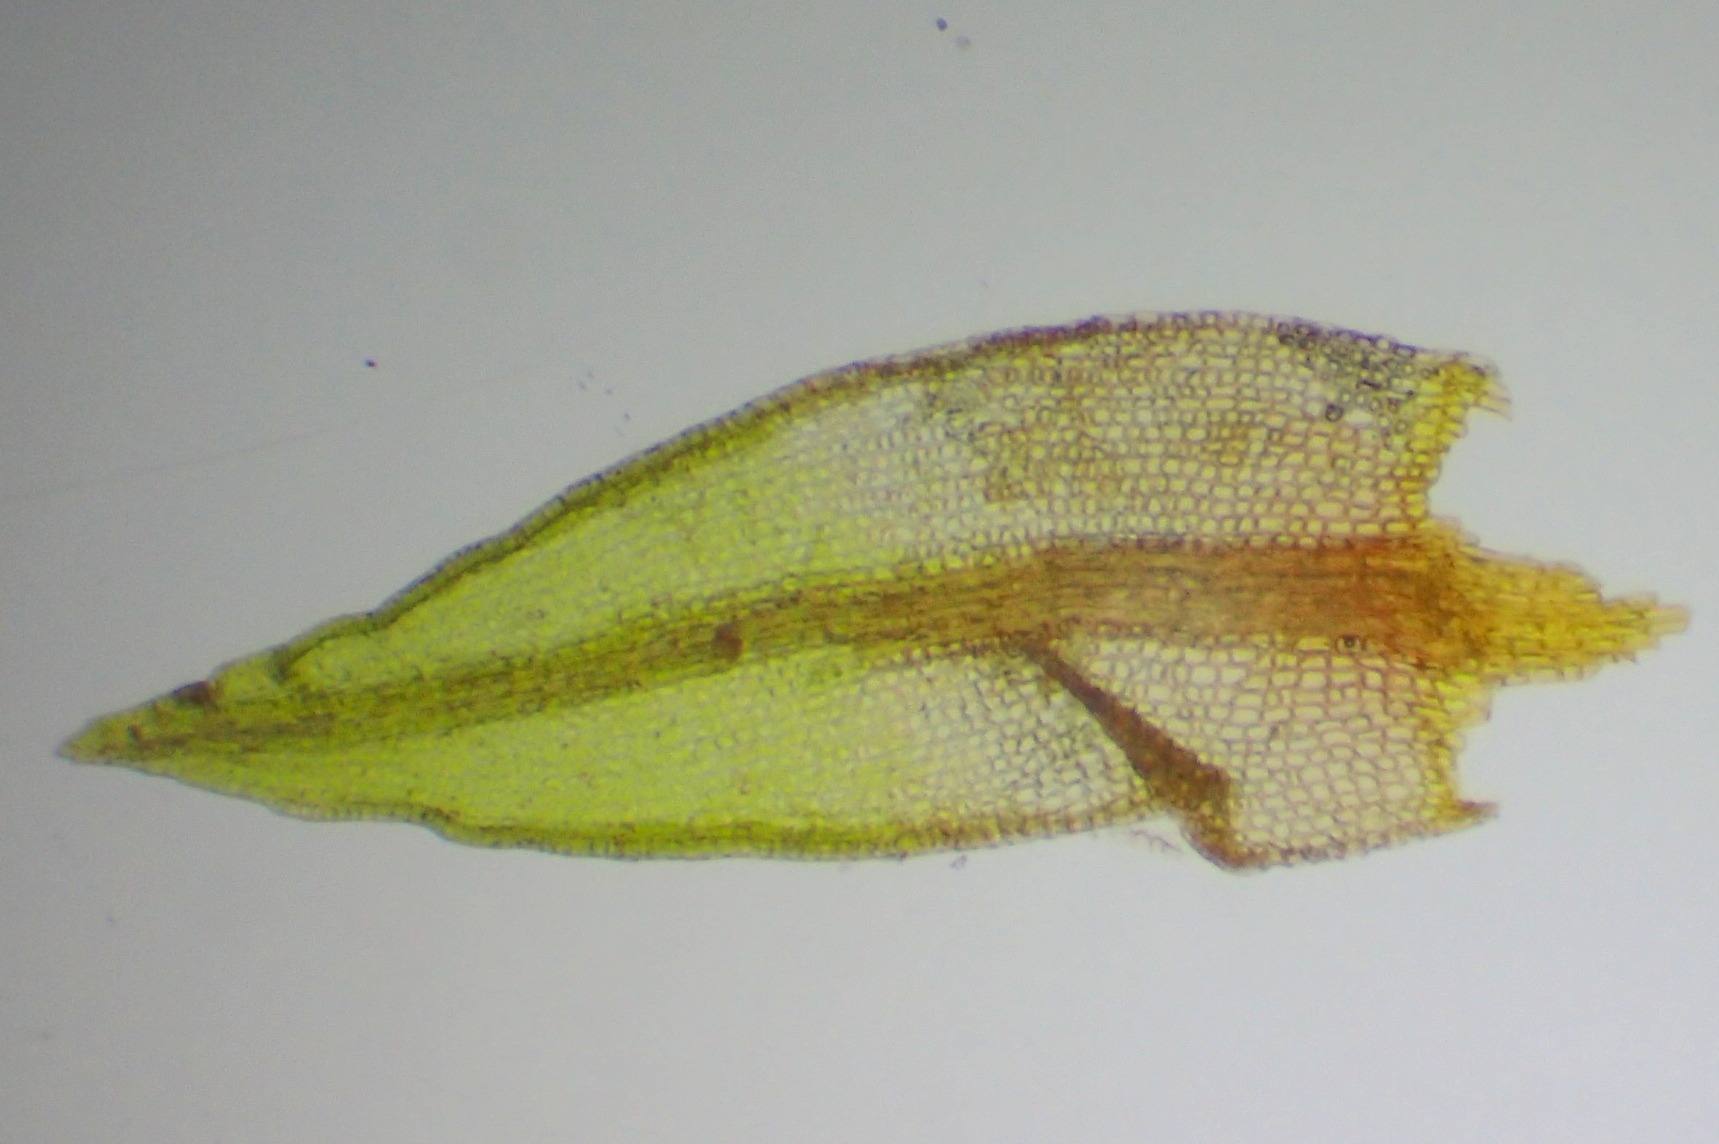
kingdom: Plantae
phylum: Bryophyta
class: Bryopsida
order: Dicranales
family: Ditrichaceae
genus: Ceratodon
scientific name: Ceratodon purpureus
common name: Rød horntand
